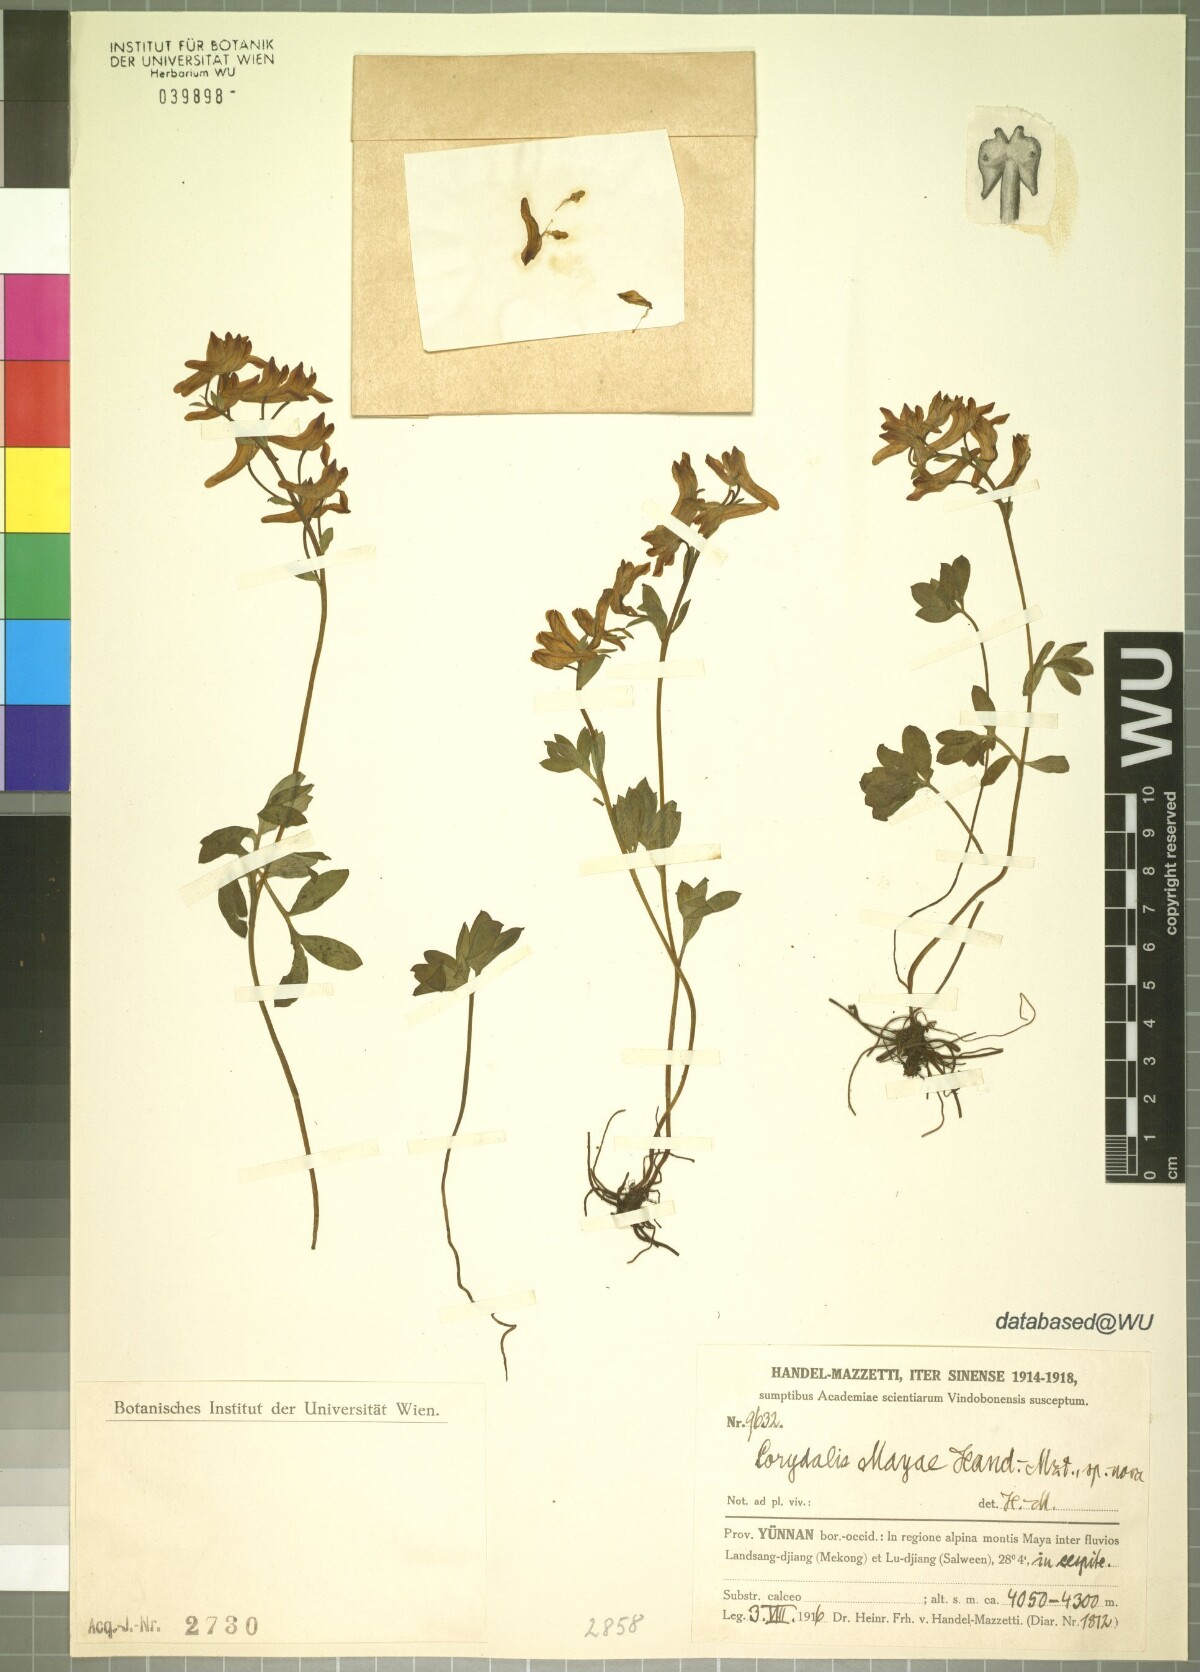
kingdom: Plantae
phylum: Tracheophyta
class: Magnoliopsida
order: Ranunculales
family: Papaveraceae
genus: Corydalis
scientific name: Corydalis mayae
